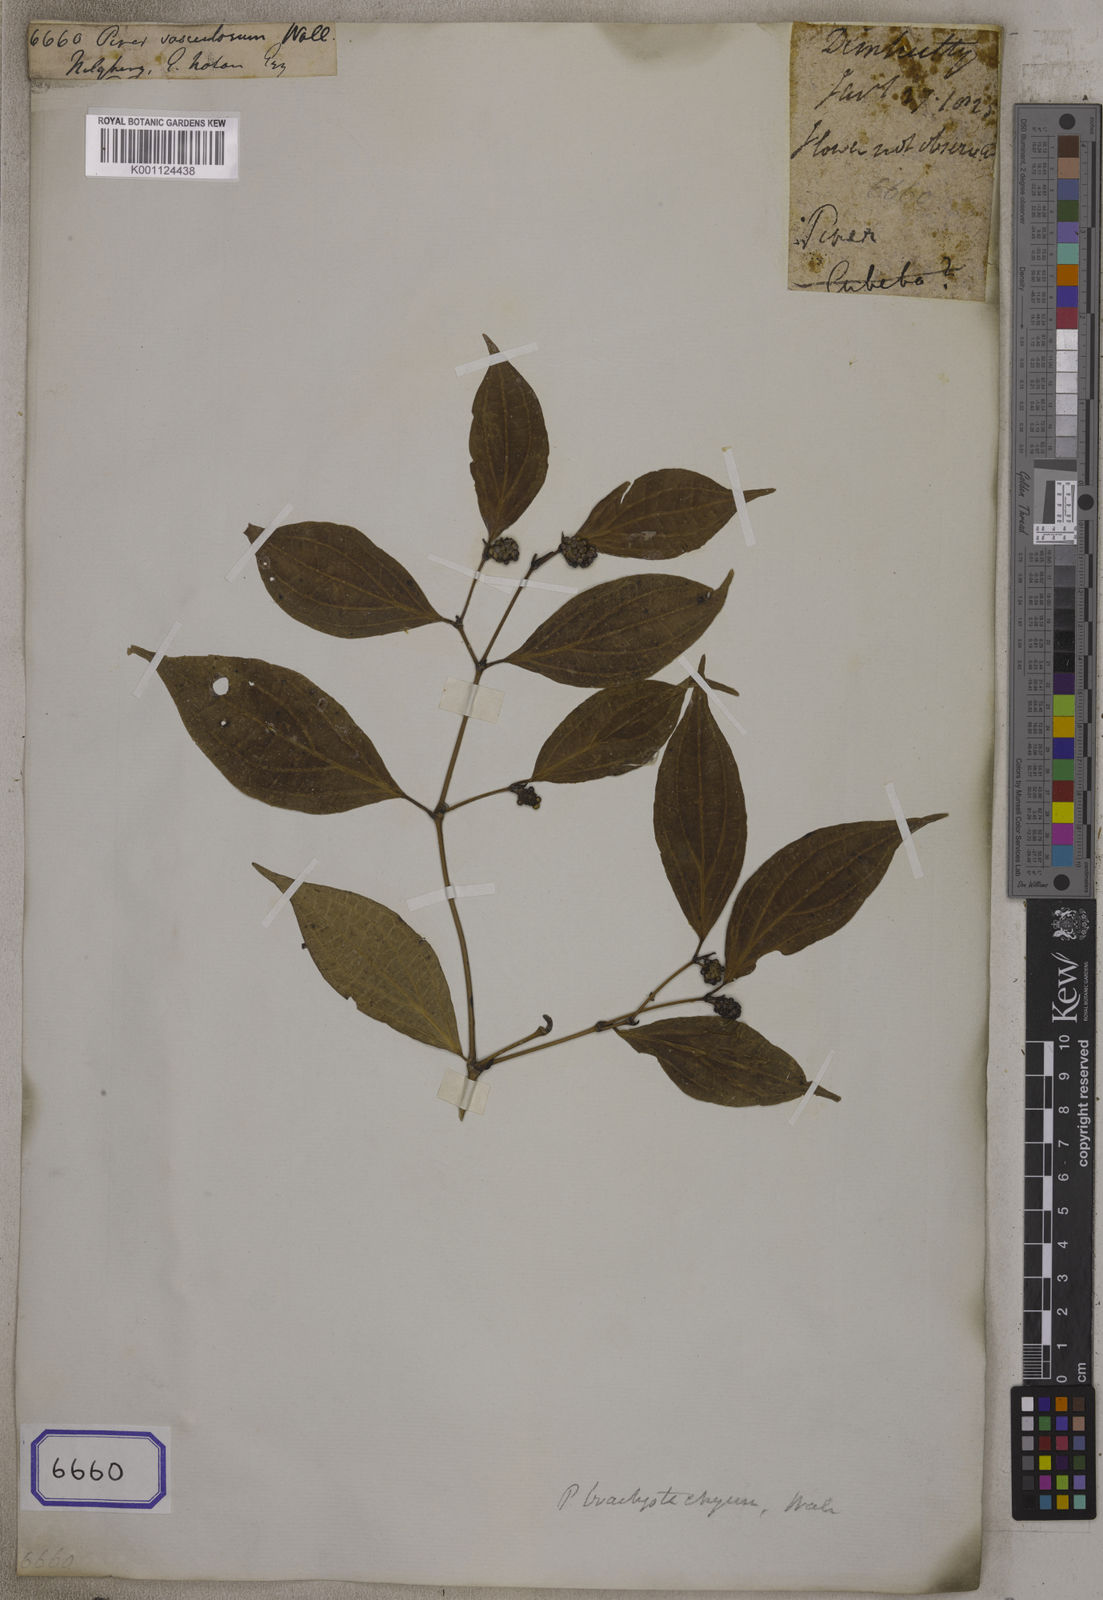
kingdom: Plantae
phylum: Tracheophyta
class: Magnoliopsida
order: Piperales
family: Piperaceae
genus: Piper
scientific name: Piper mullesua
